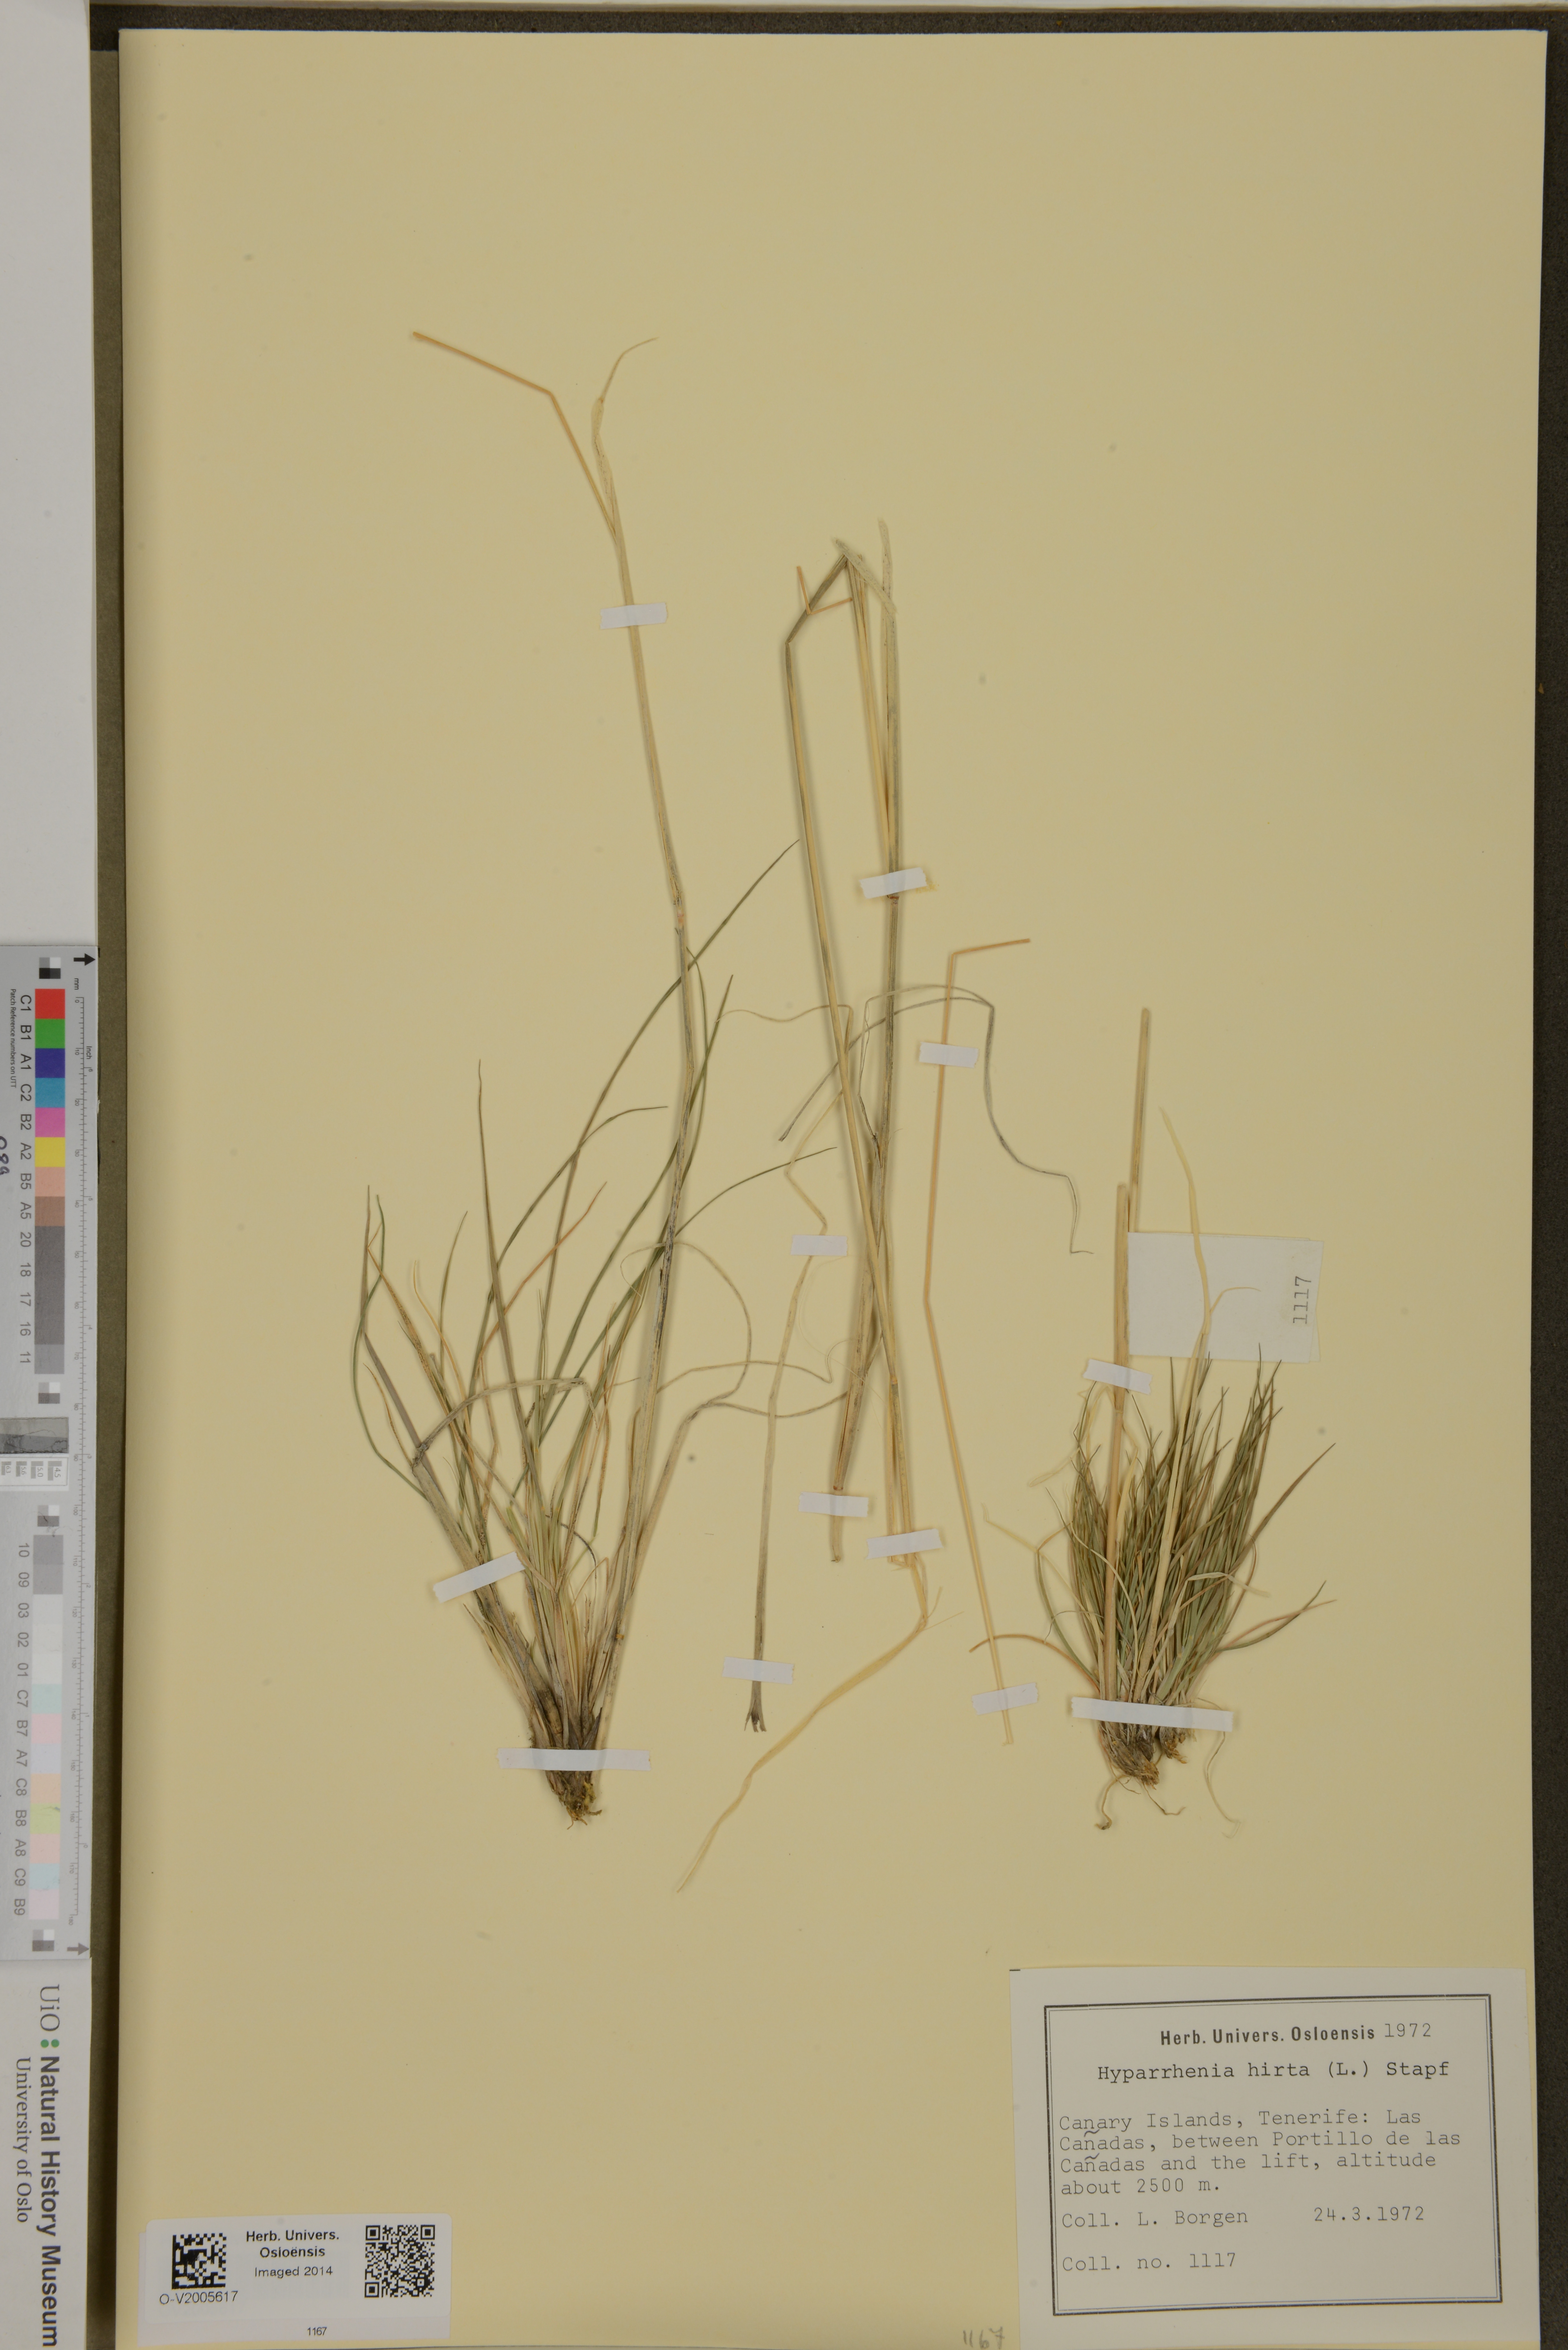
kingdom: Plantae
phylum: Tracheophyta
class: Liliopsida
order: Poales
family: Poaceae
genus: Hyparrhenia
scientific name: Hyparrhenia hirta
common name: Thatching grass
